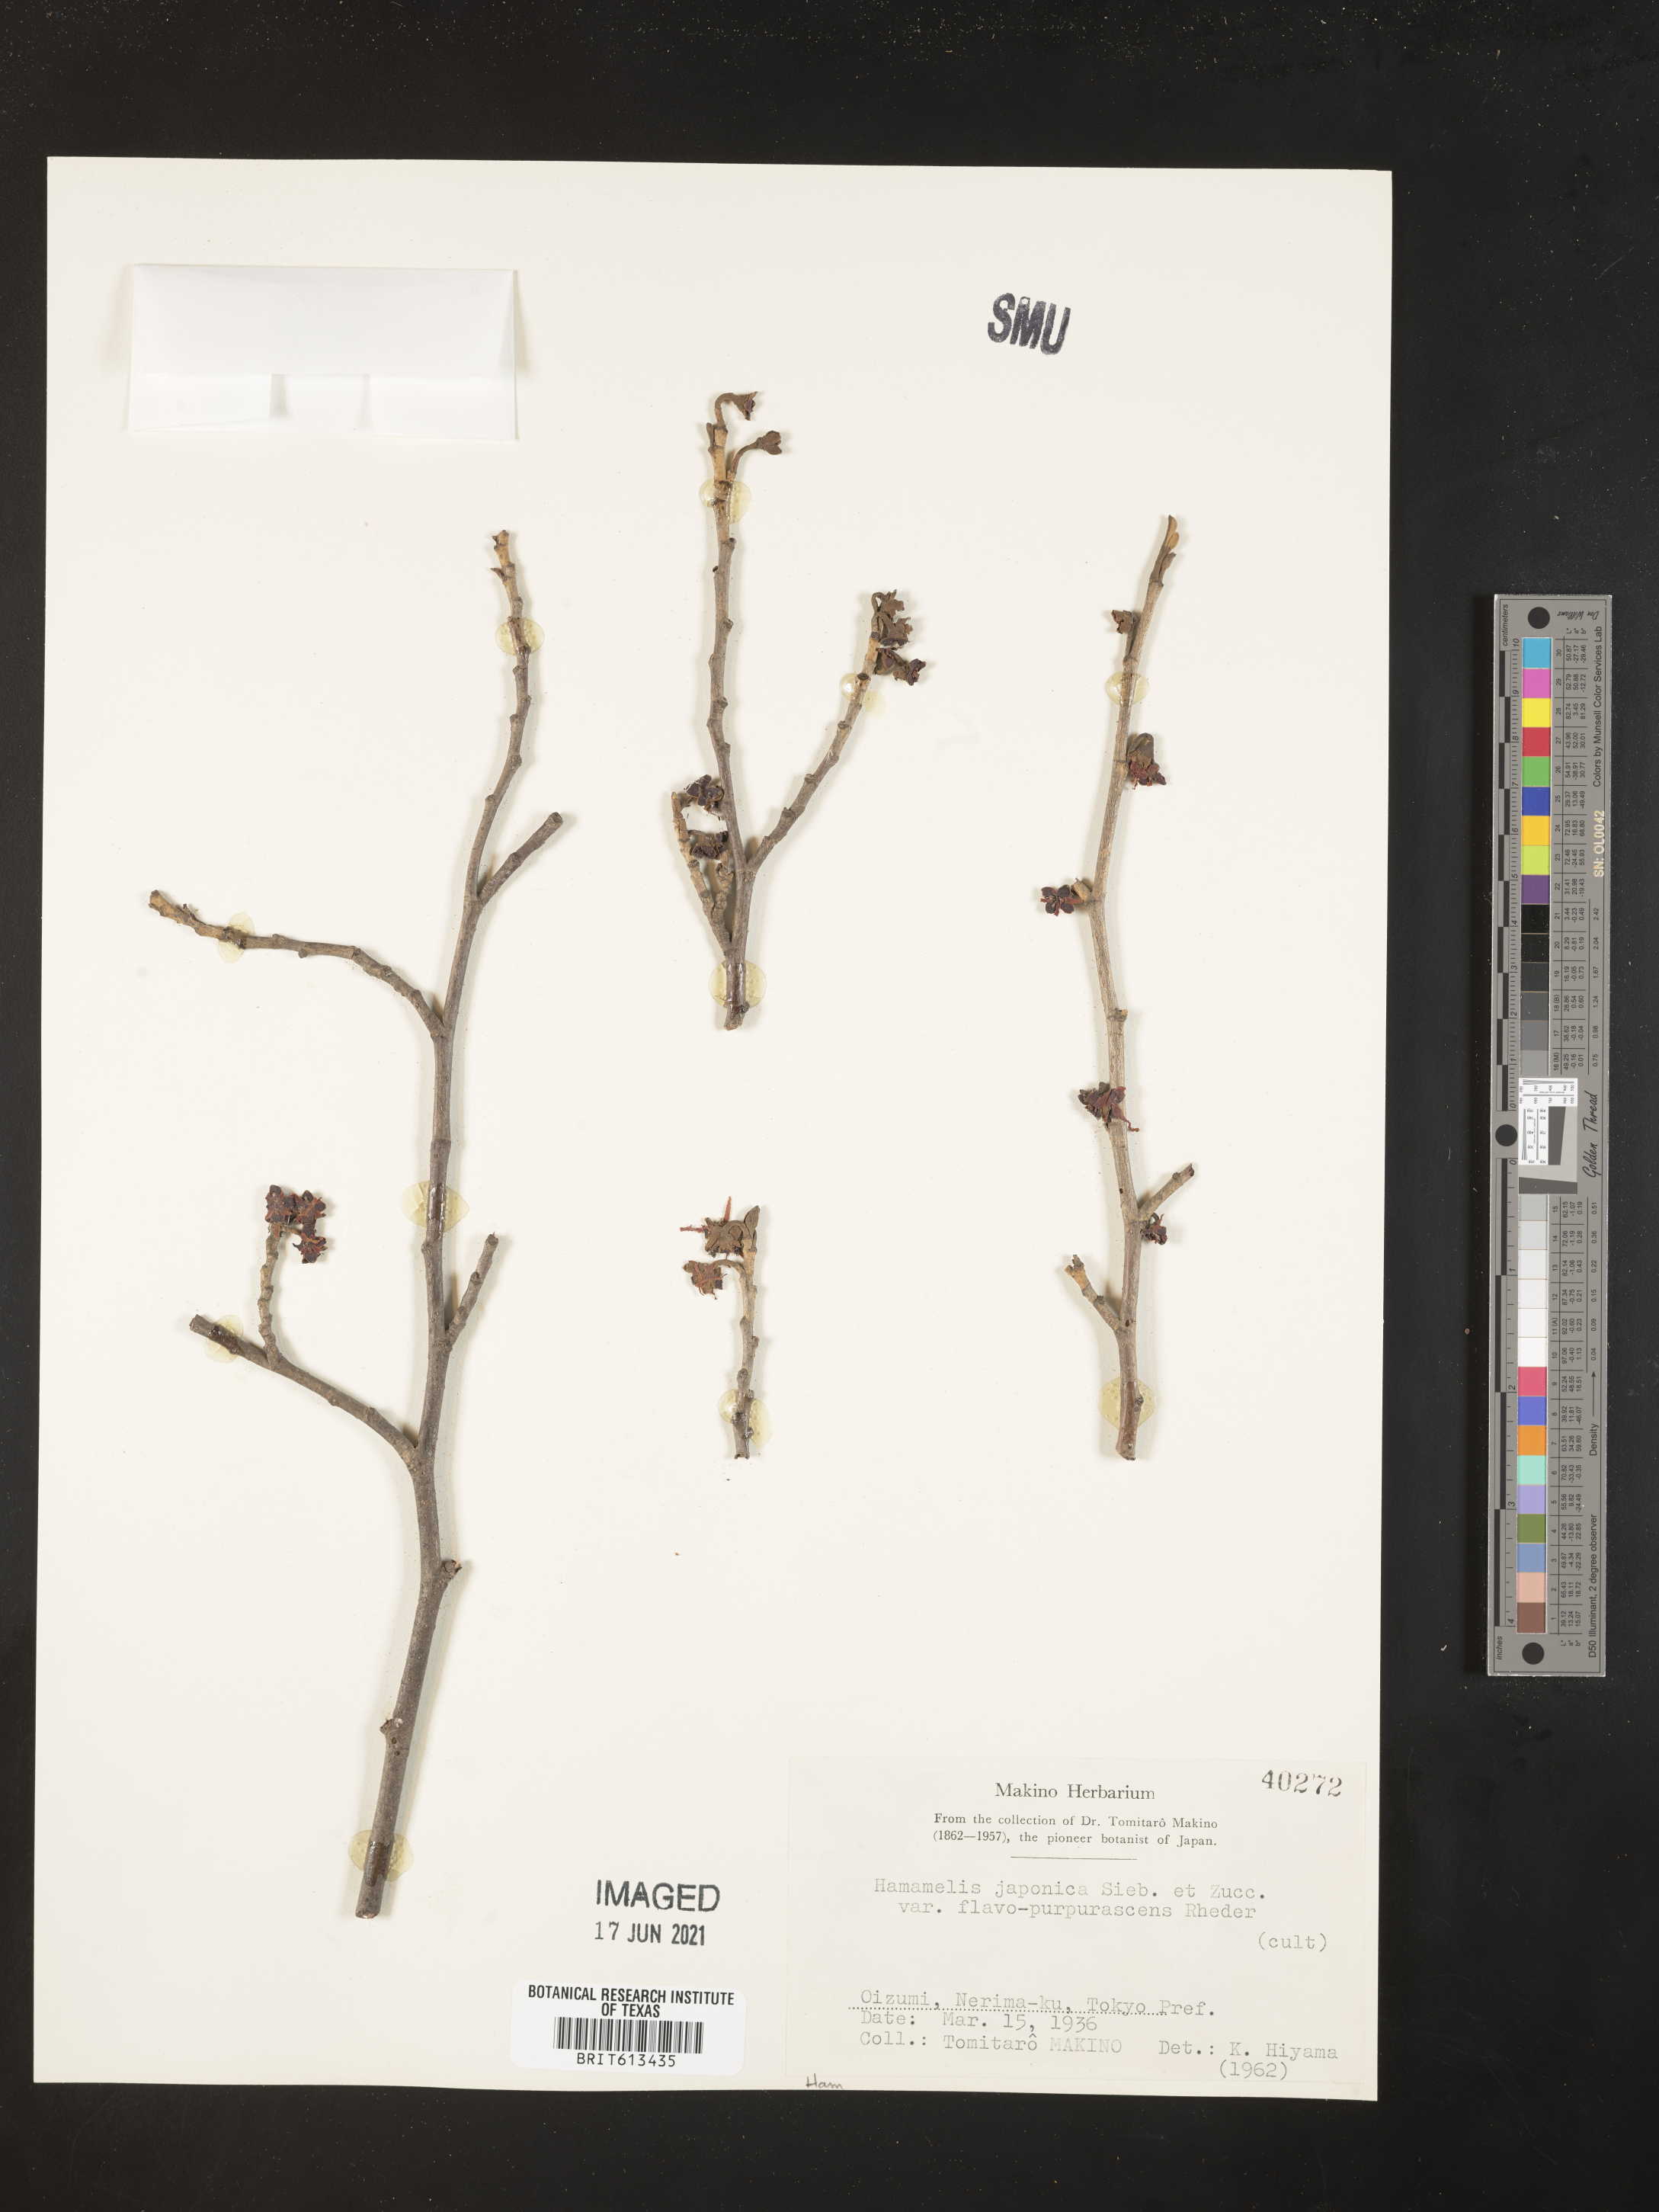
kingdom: Plantae
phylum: Tracheophyta
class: Magnoliopsida
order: Saxifragales
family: Hamamelidaceae
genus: Hamamelis
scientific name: Hamamelis japonica
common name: Japanese witch-hazel
